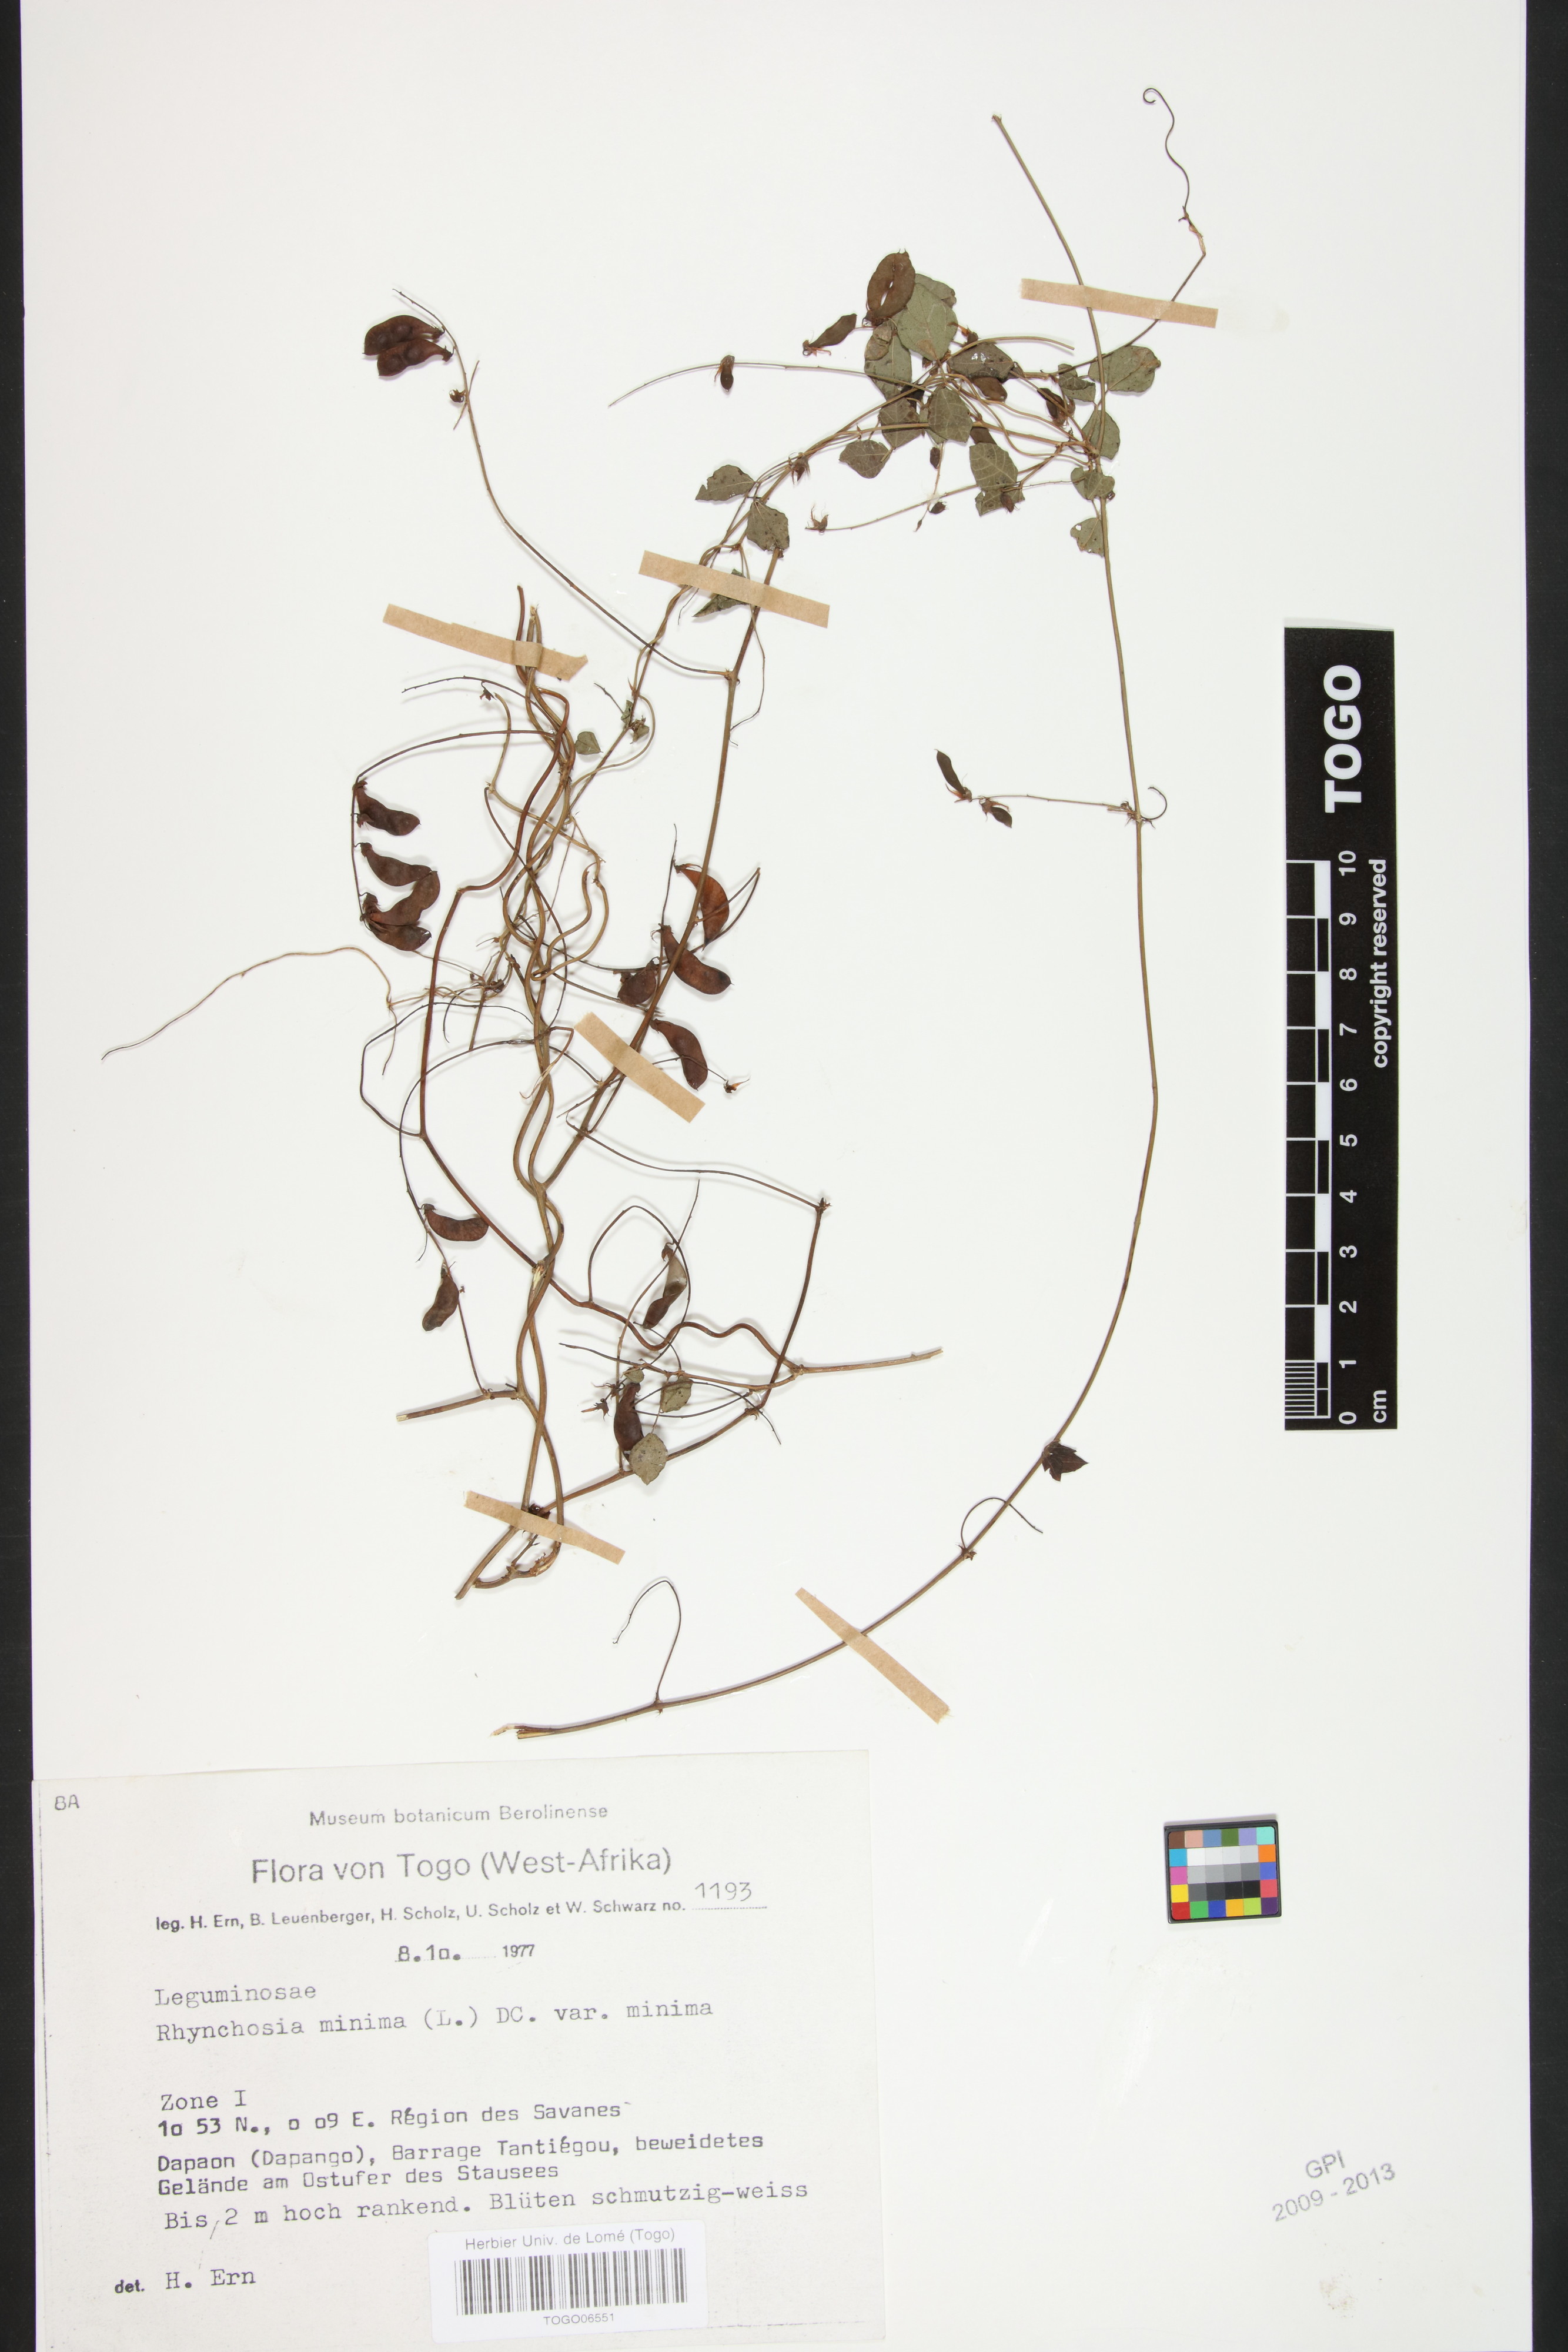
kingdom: Plantae
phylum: Tracheophyta
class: Magnoliopsida
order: Fabales
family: Fabaceae
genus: Rhynchosia
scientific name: Rhynchosia minima
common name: Least snoutbean
